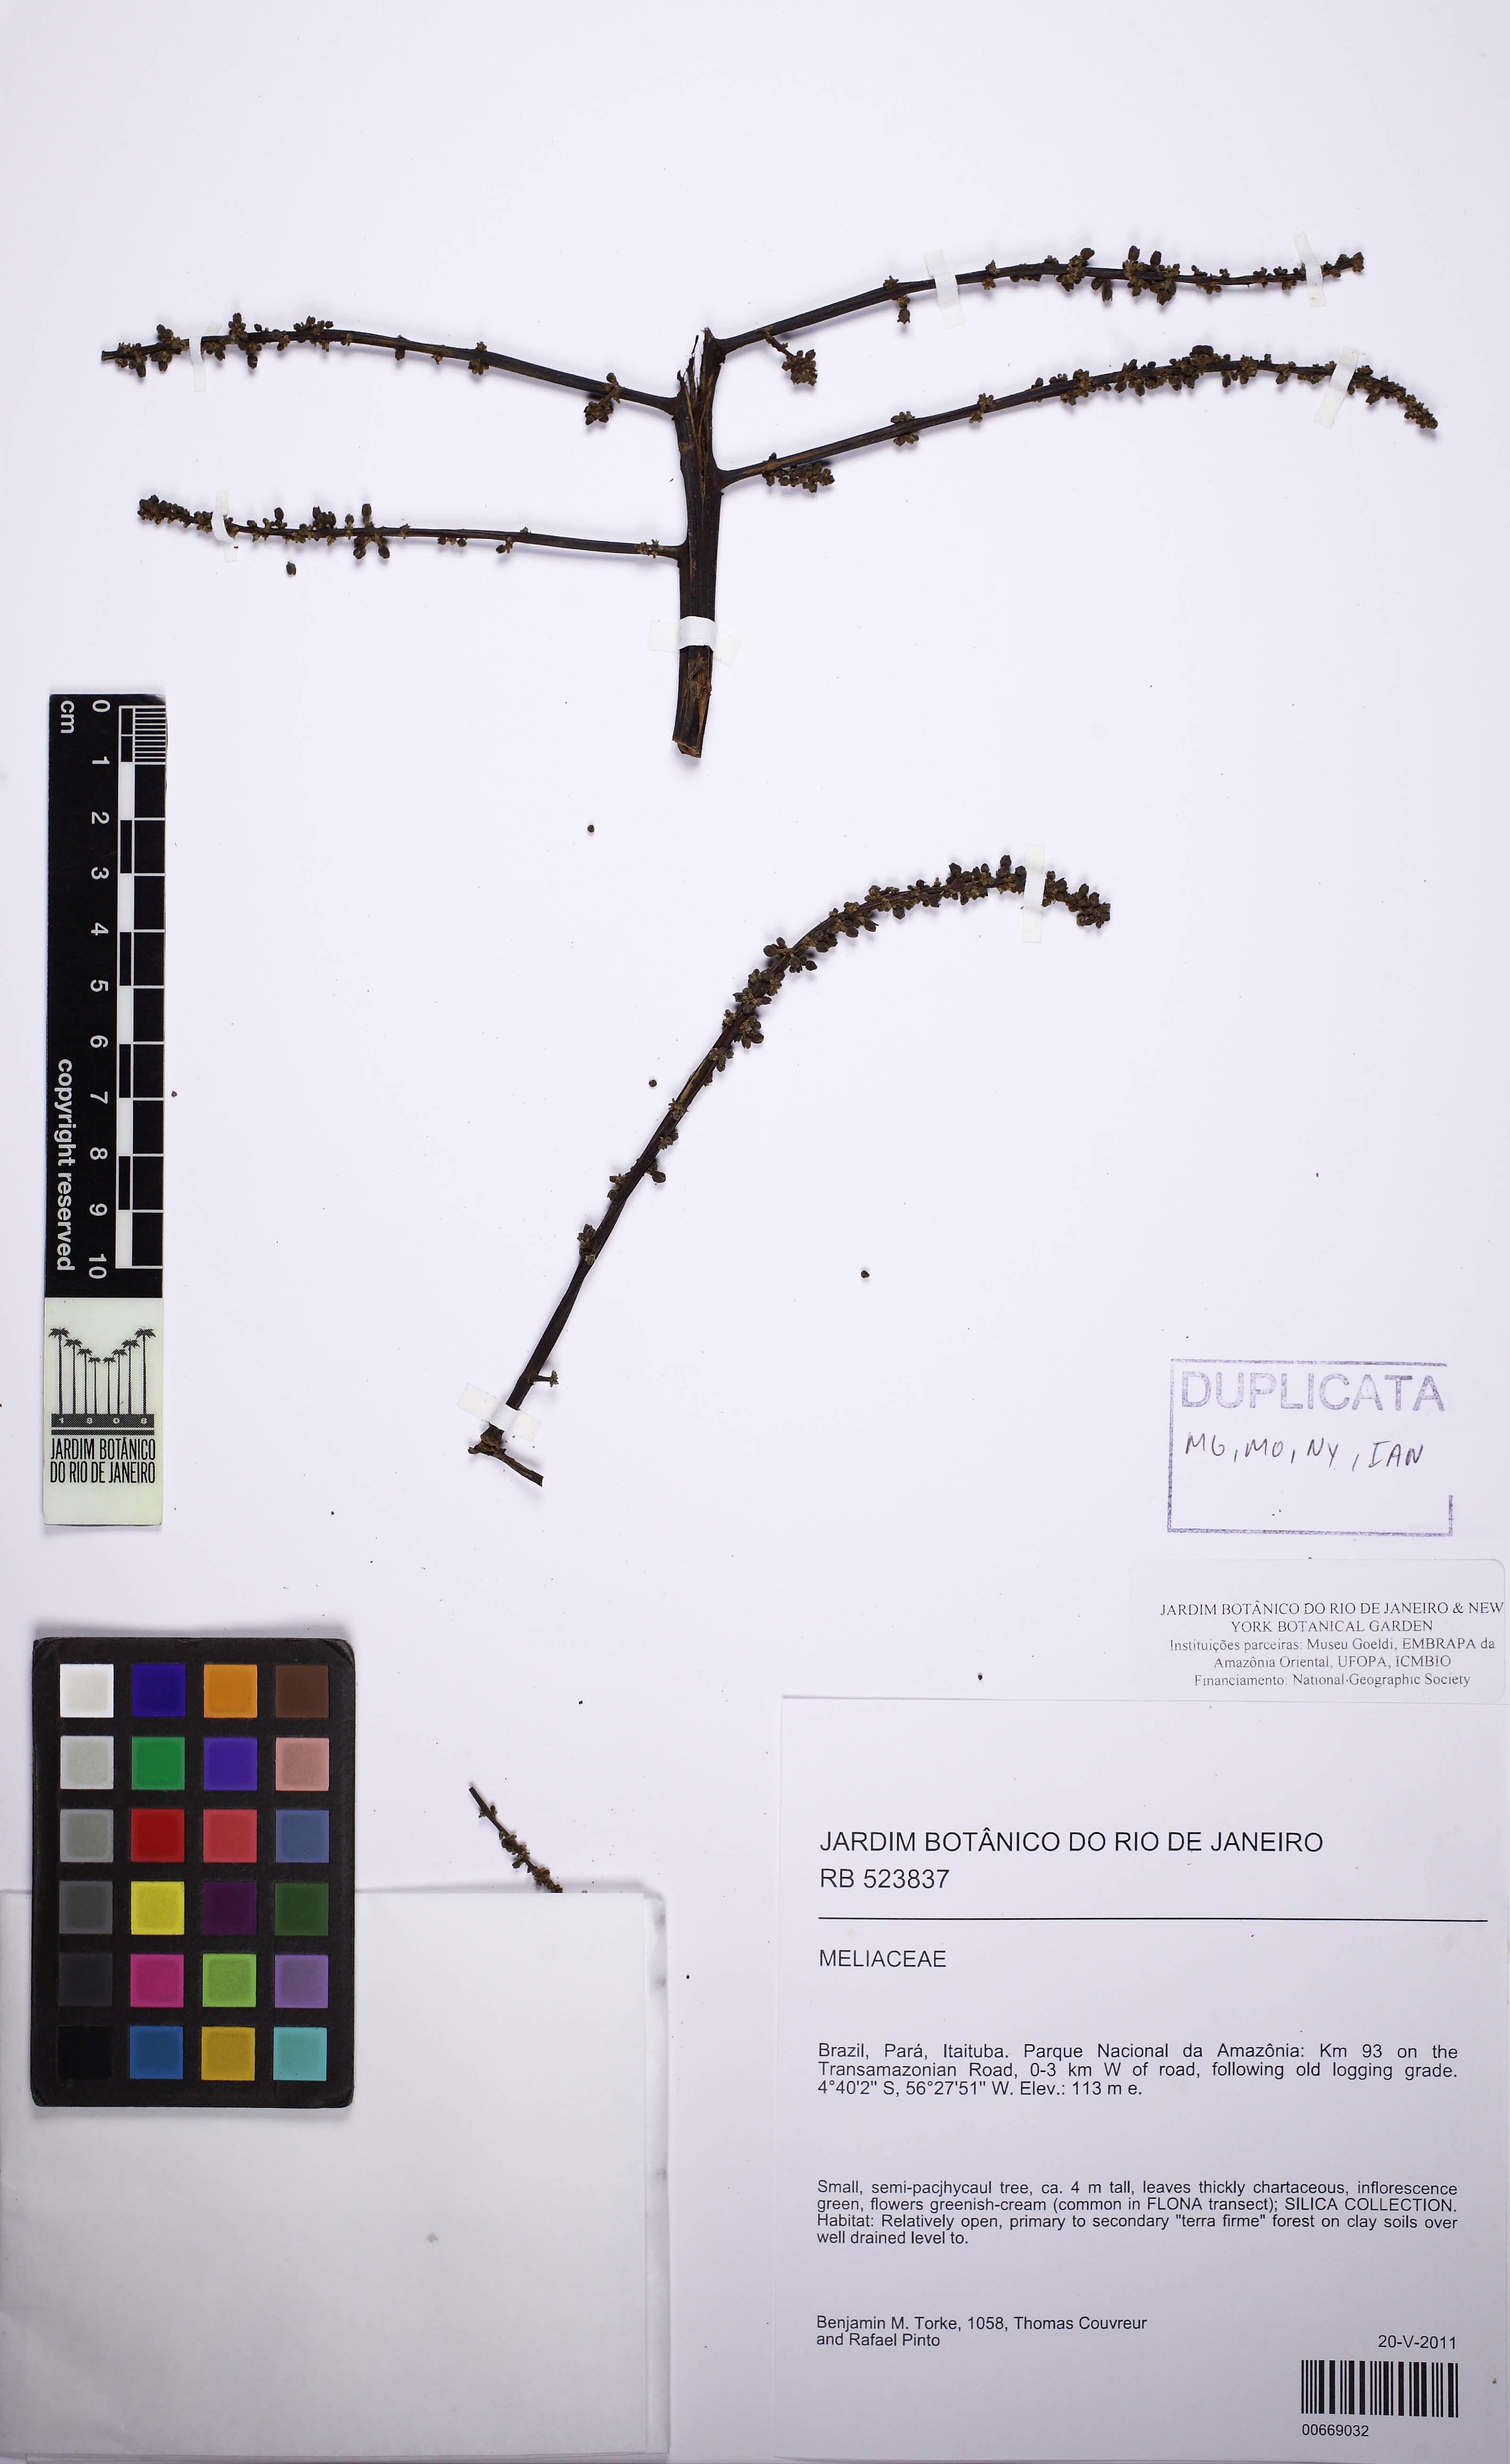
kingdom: Plantae
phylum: Tracheophyta
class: Magnoliopsida
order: Sapindales
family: Sapindaceae
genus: Talisia
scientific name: Talisia
